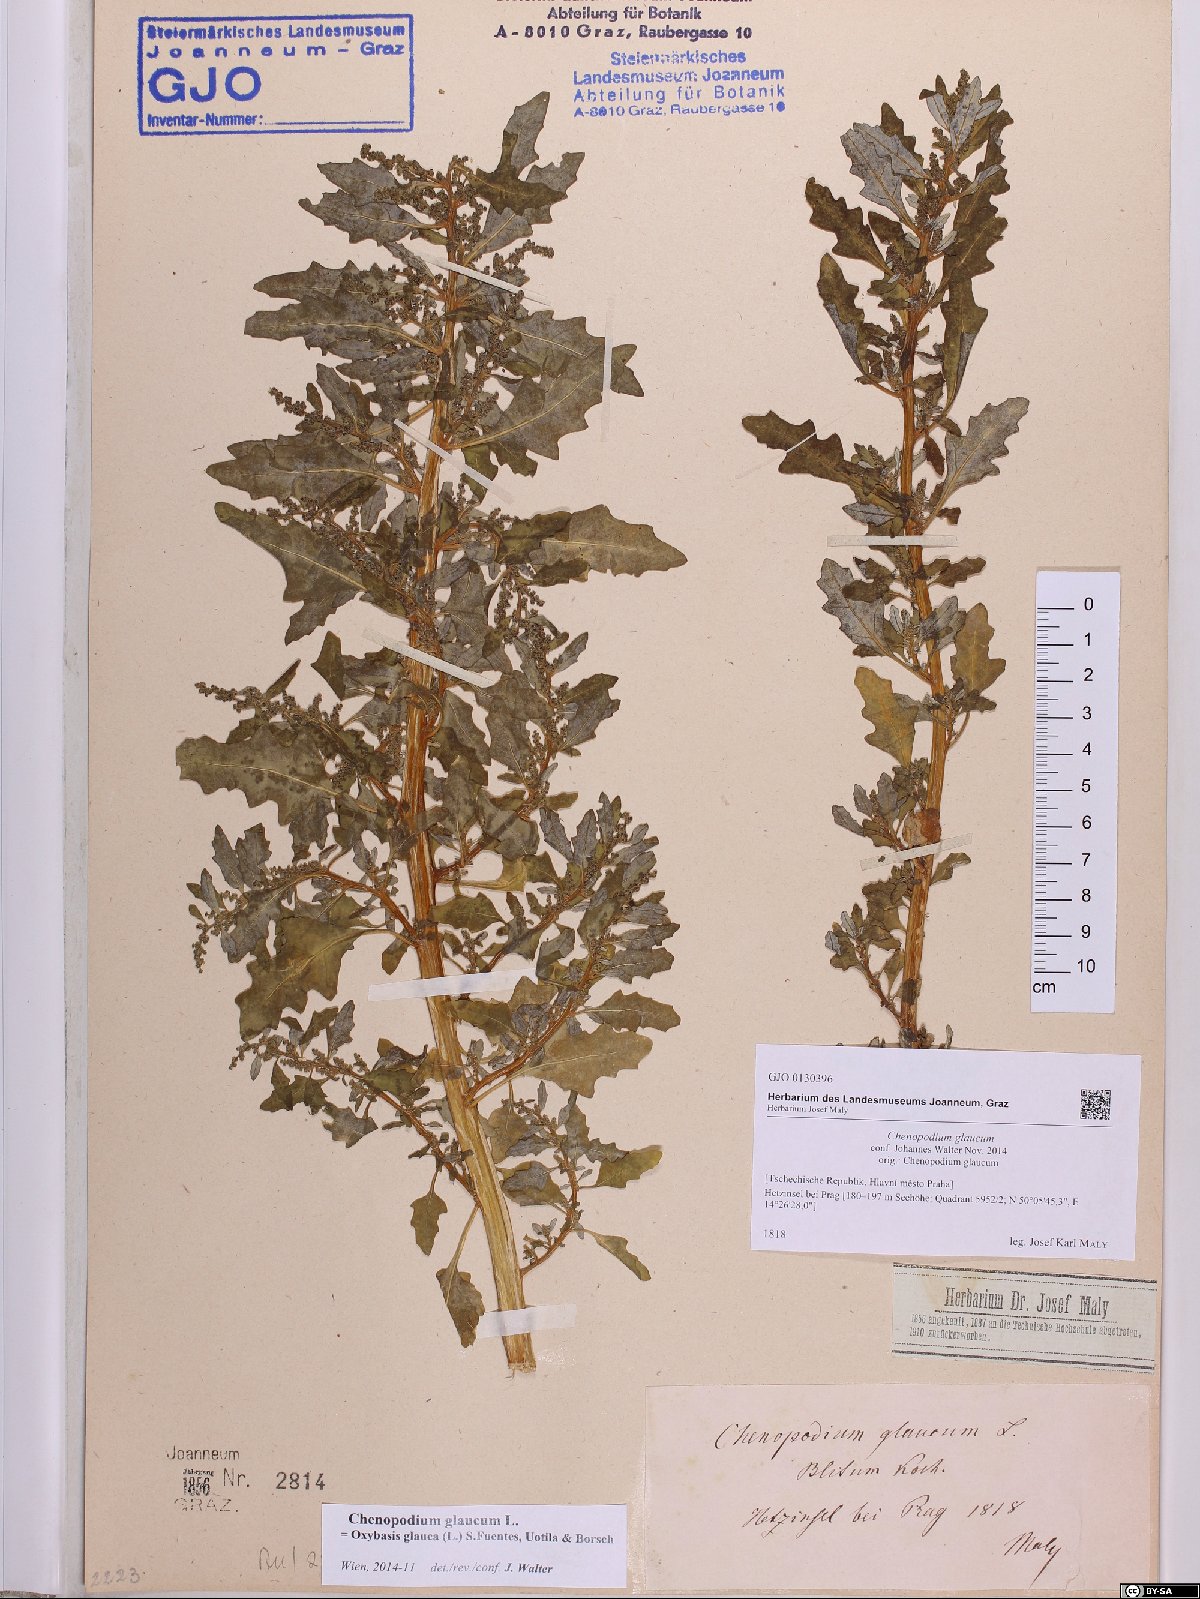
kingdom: Plantae
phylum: Tracheophyta
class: Magnoliopsida
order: Caryophyllales
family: Amaranthaceae
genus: Oxybasis
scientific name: Oxybasis glauca
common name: Glaucous goosefoot
